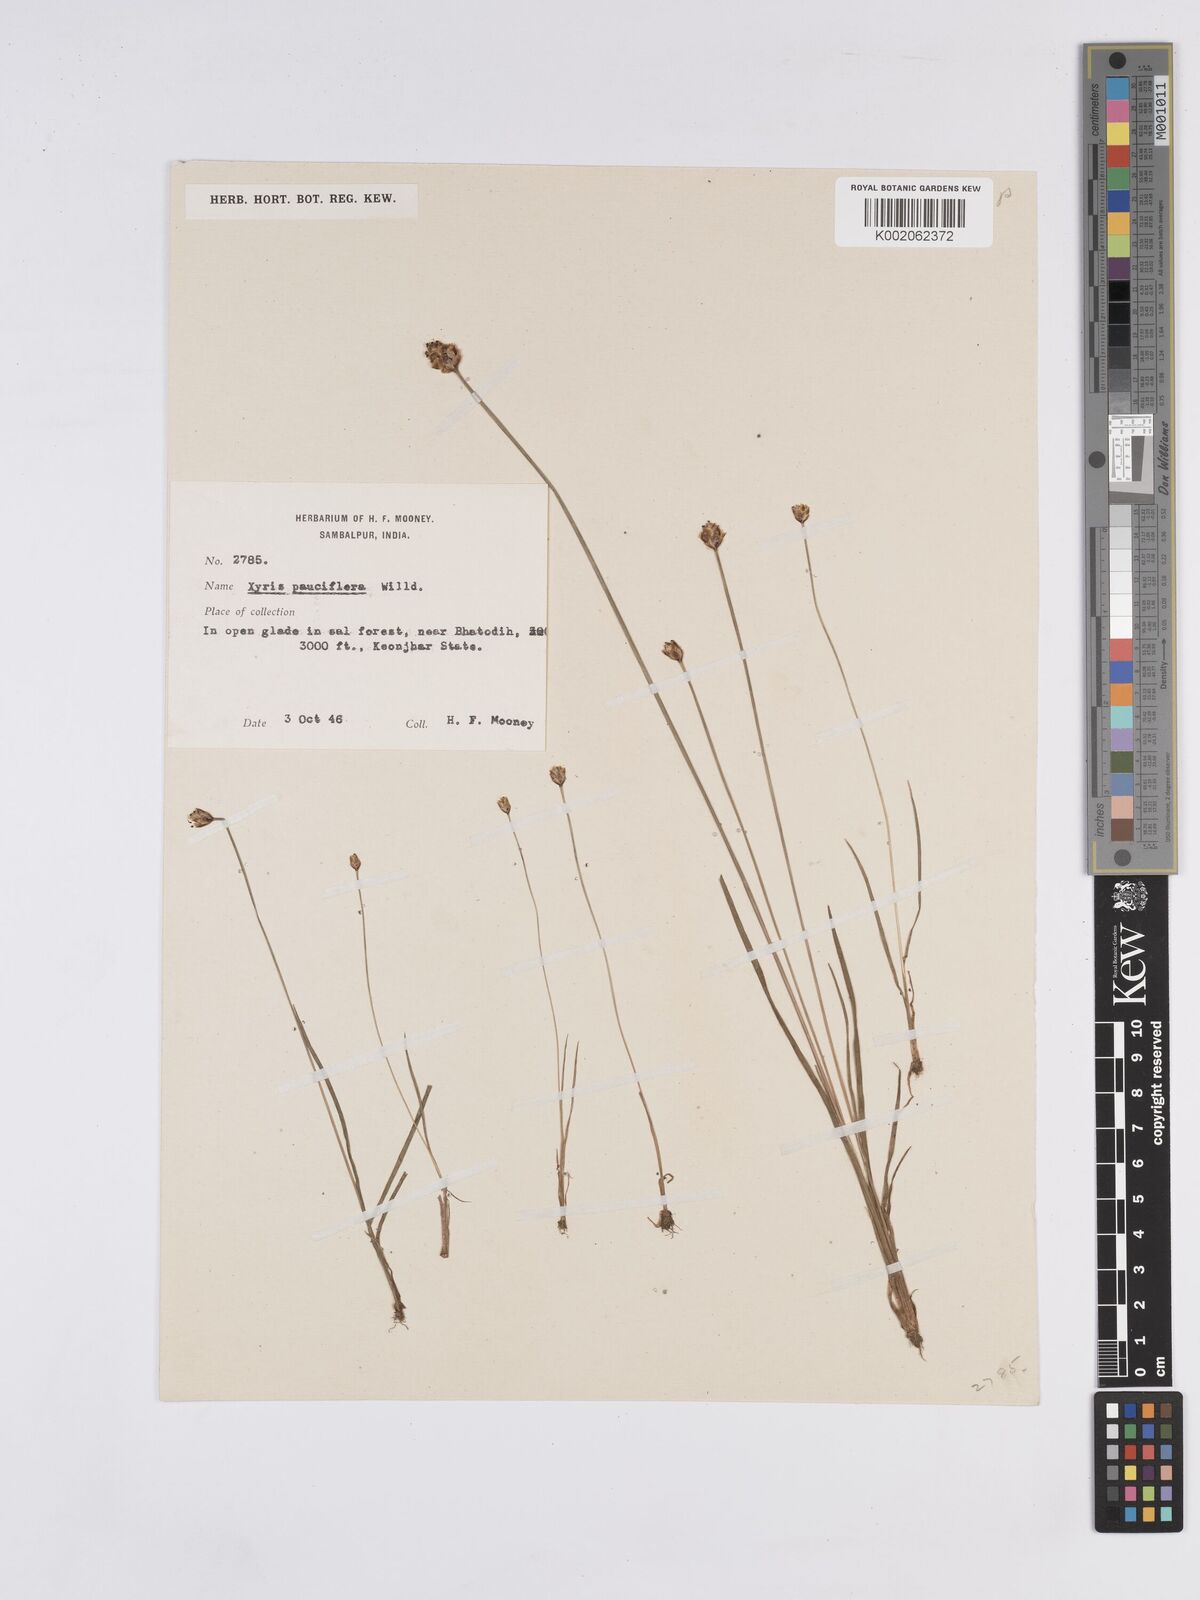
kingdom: Plantae
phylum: Tracheophyta
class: Liliopsida
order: Poales
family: Xyridaceae
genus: Xyris
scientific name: Xyris pauciflora
